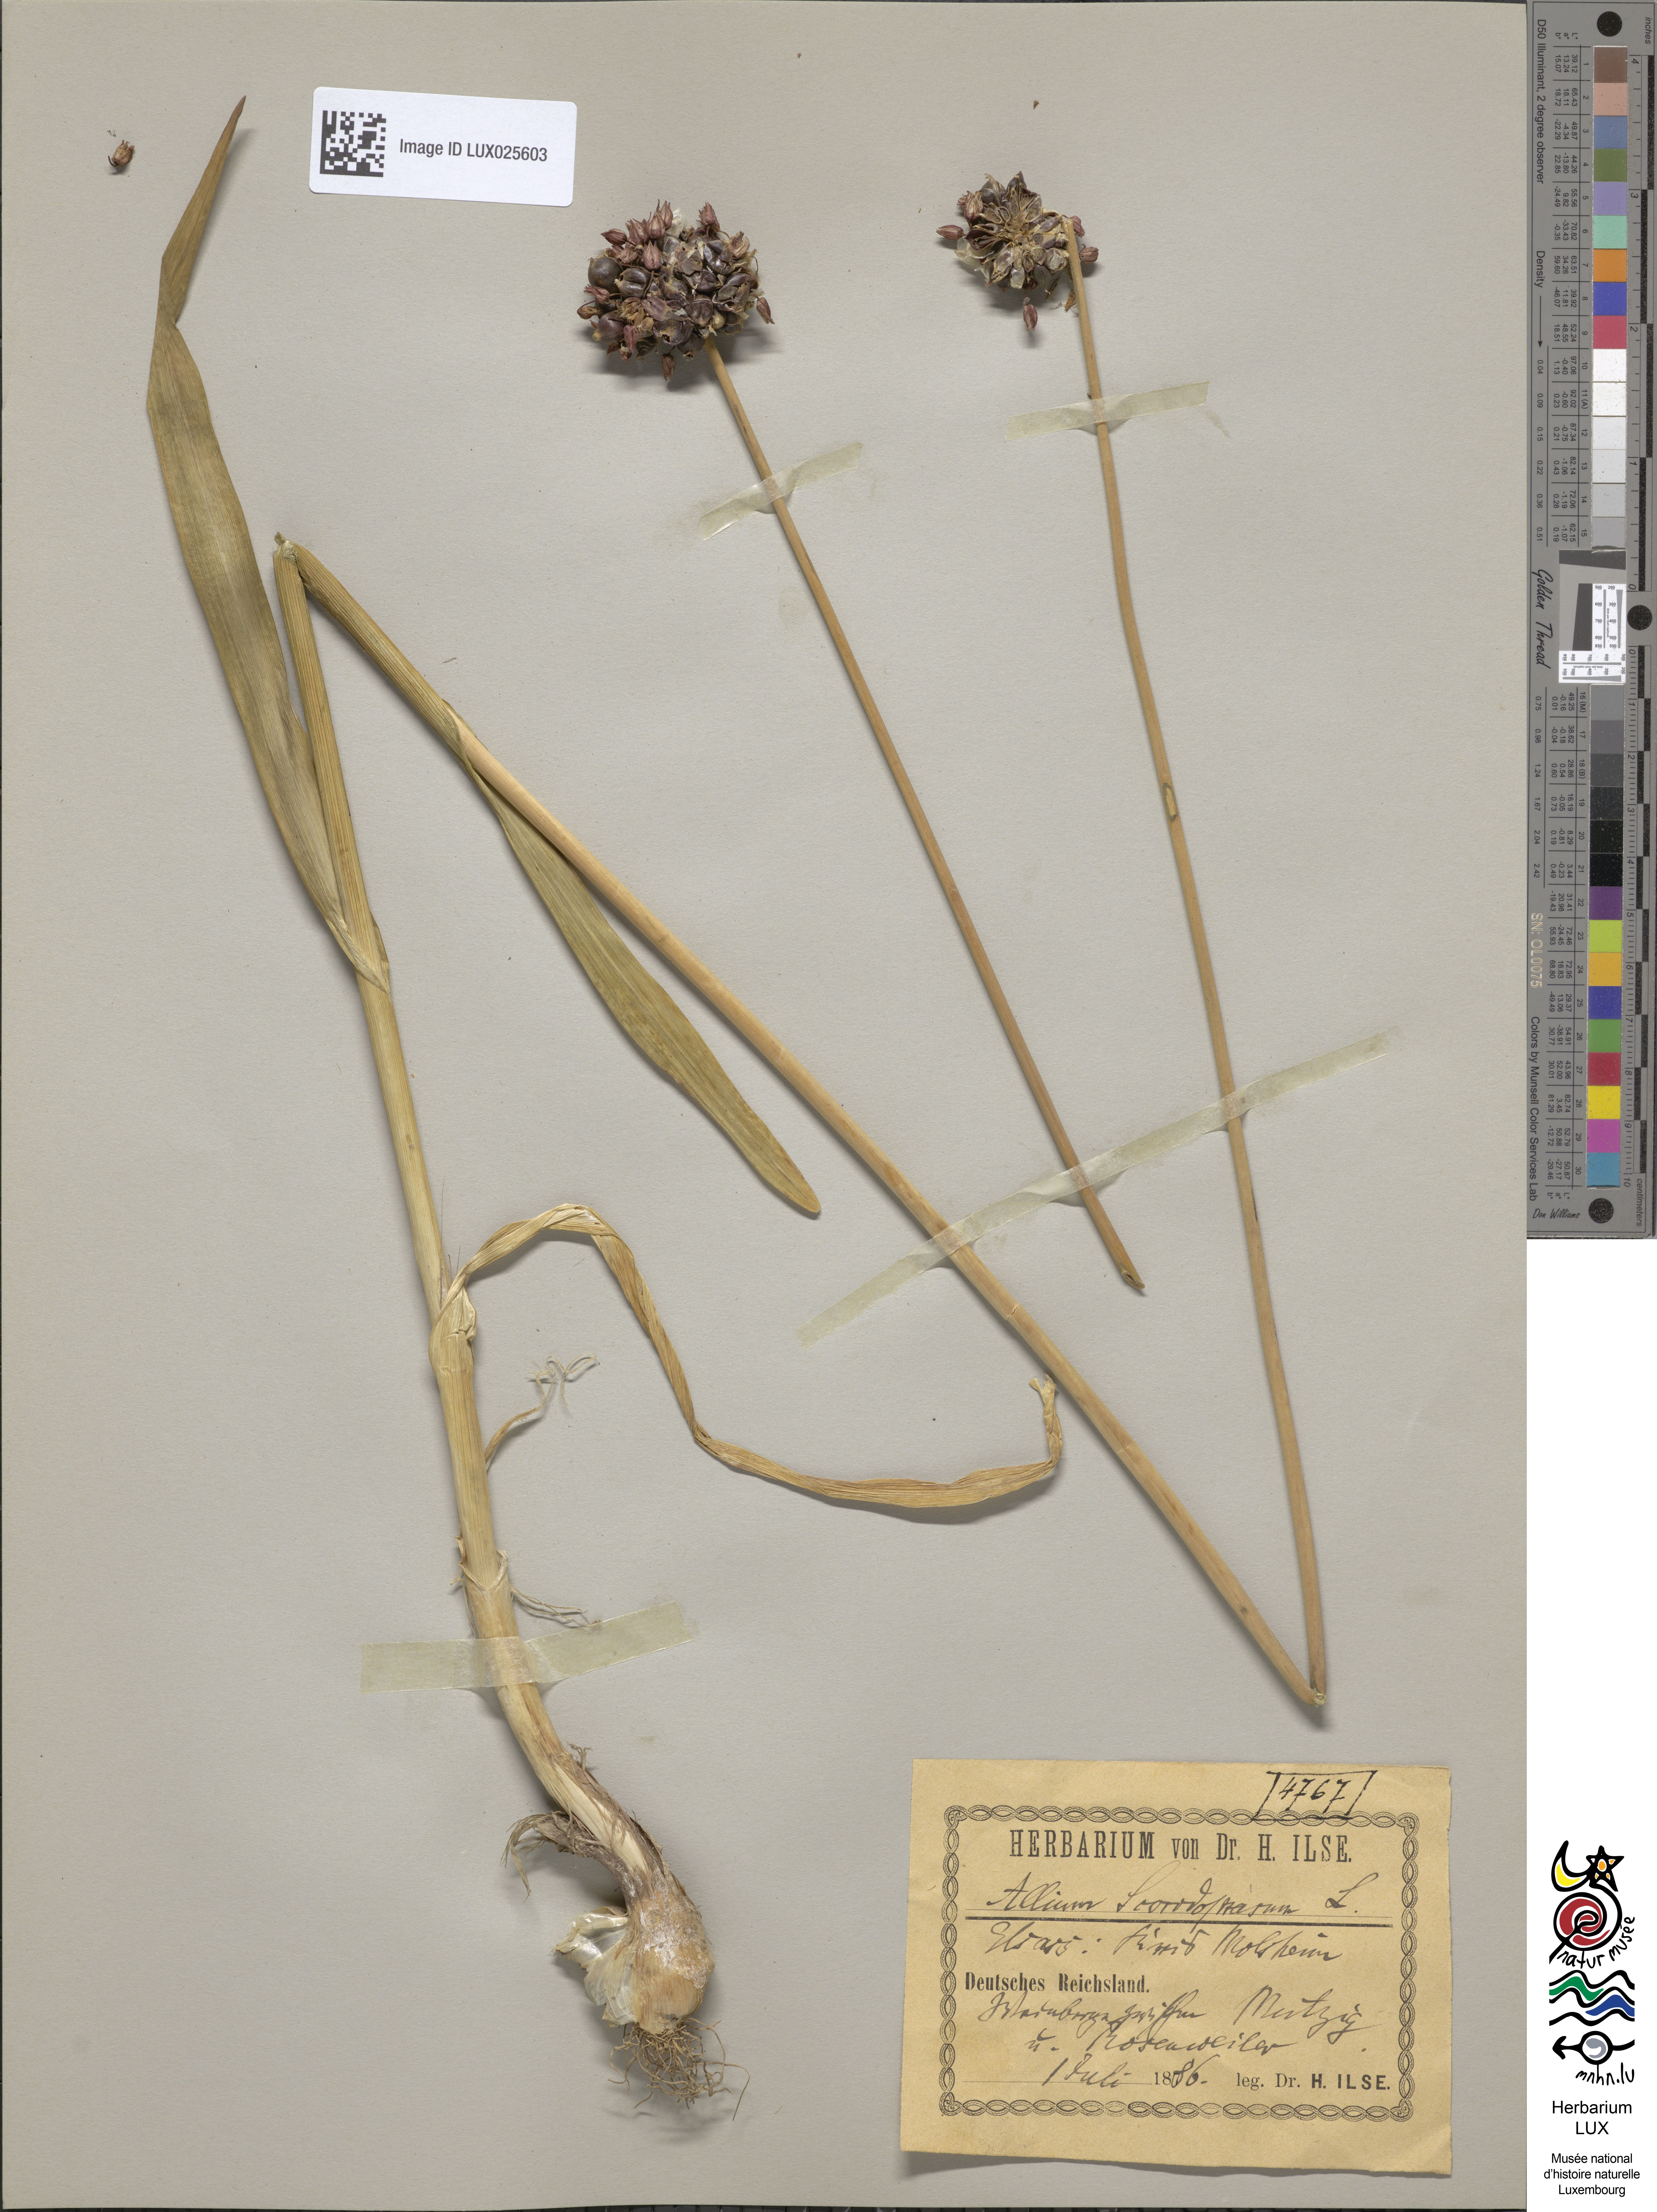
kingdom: Plantae
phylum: Tracheophyta
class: Liliopsida
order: Asparagales
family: Amaryllidaceae
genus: Allium
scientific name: Allium scorodoprasum
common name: Sand leek
